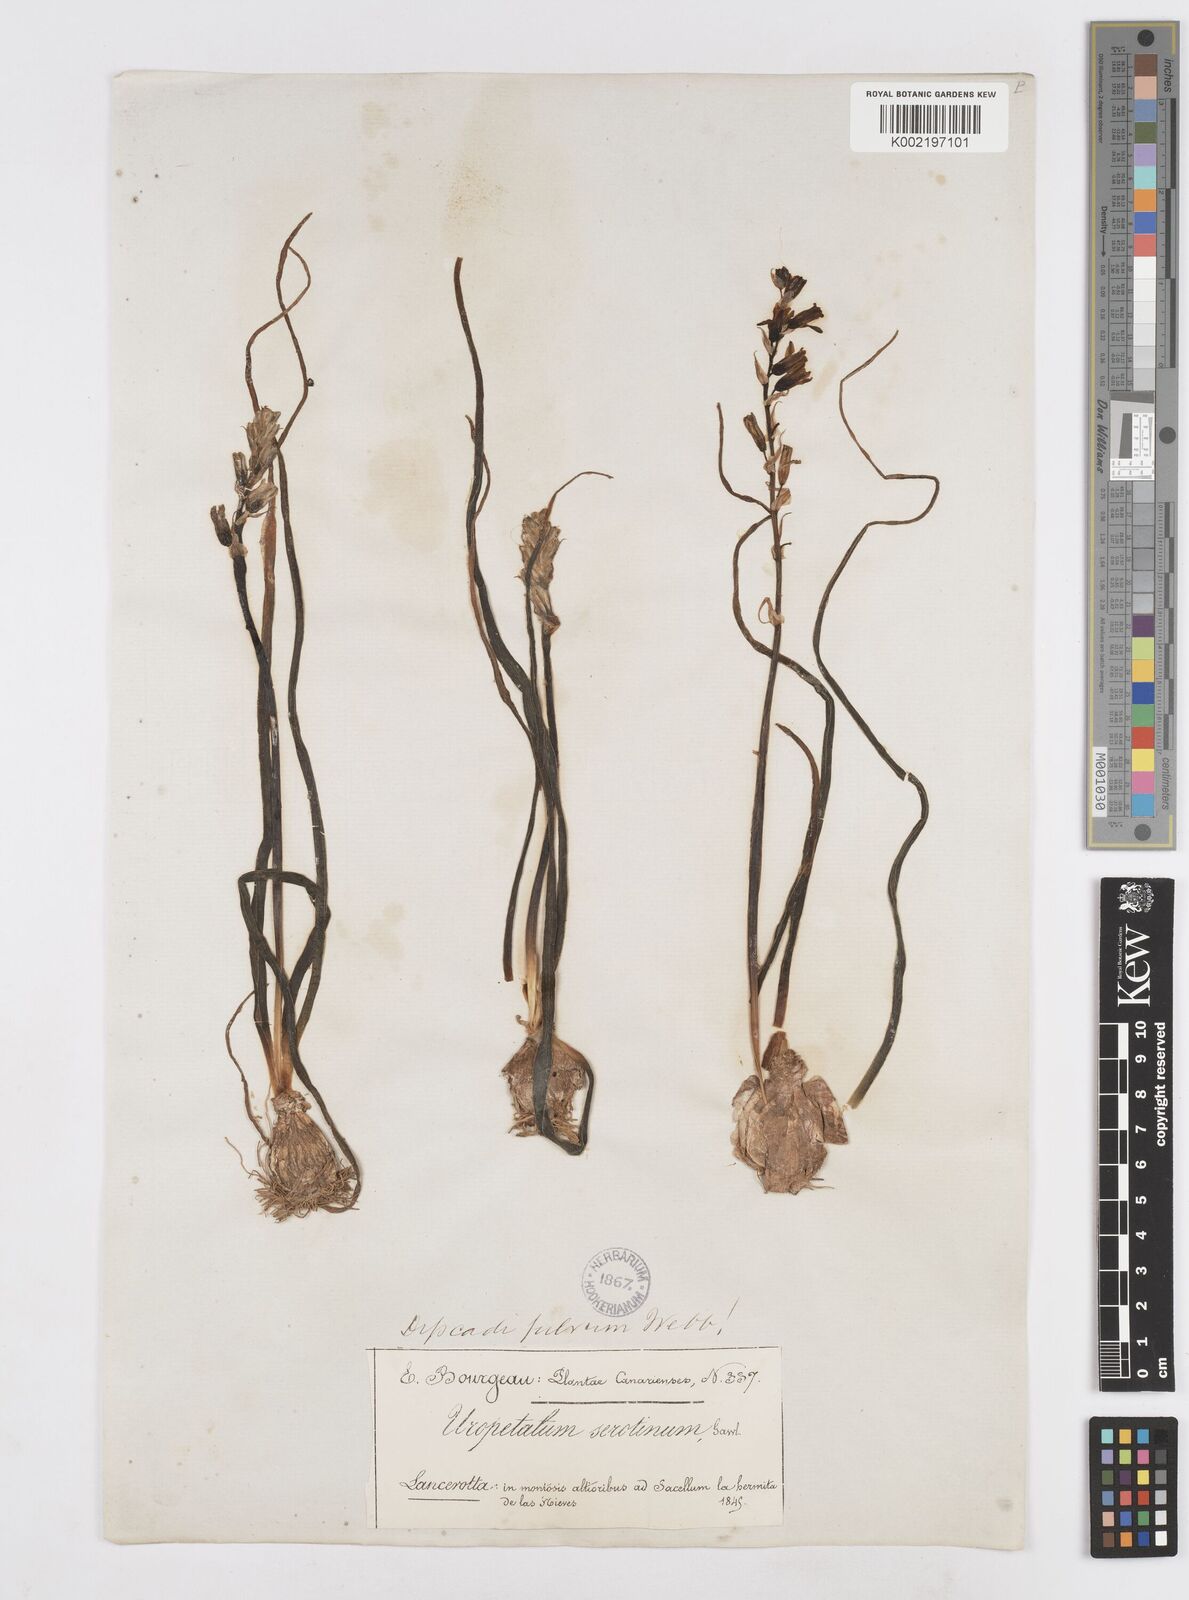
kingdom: Plantae
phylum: Tracheophyta
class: Liliopsida
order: Asparagales
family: Asparagaceae
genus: Dipcadi
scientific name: Dipcadi serotinum
